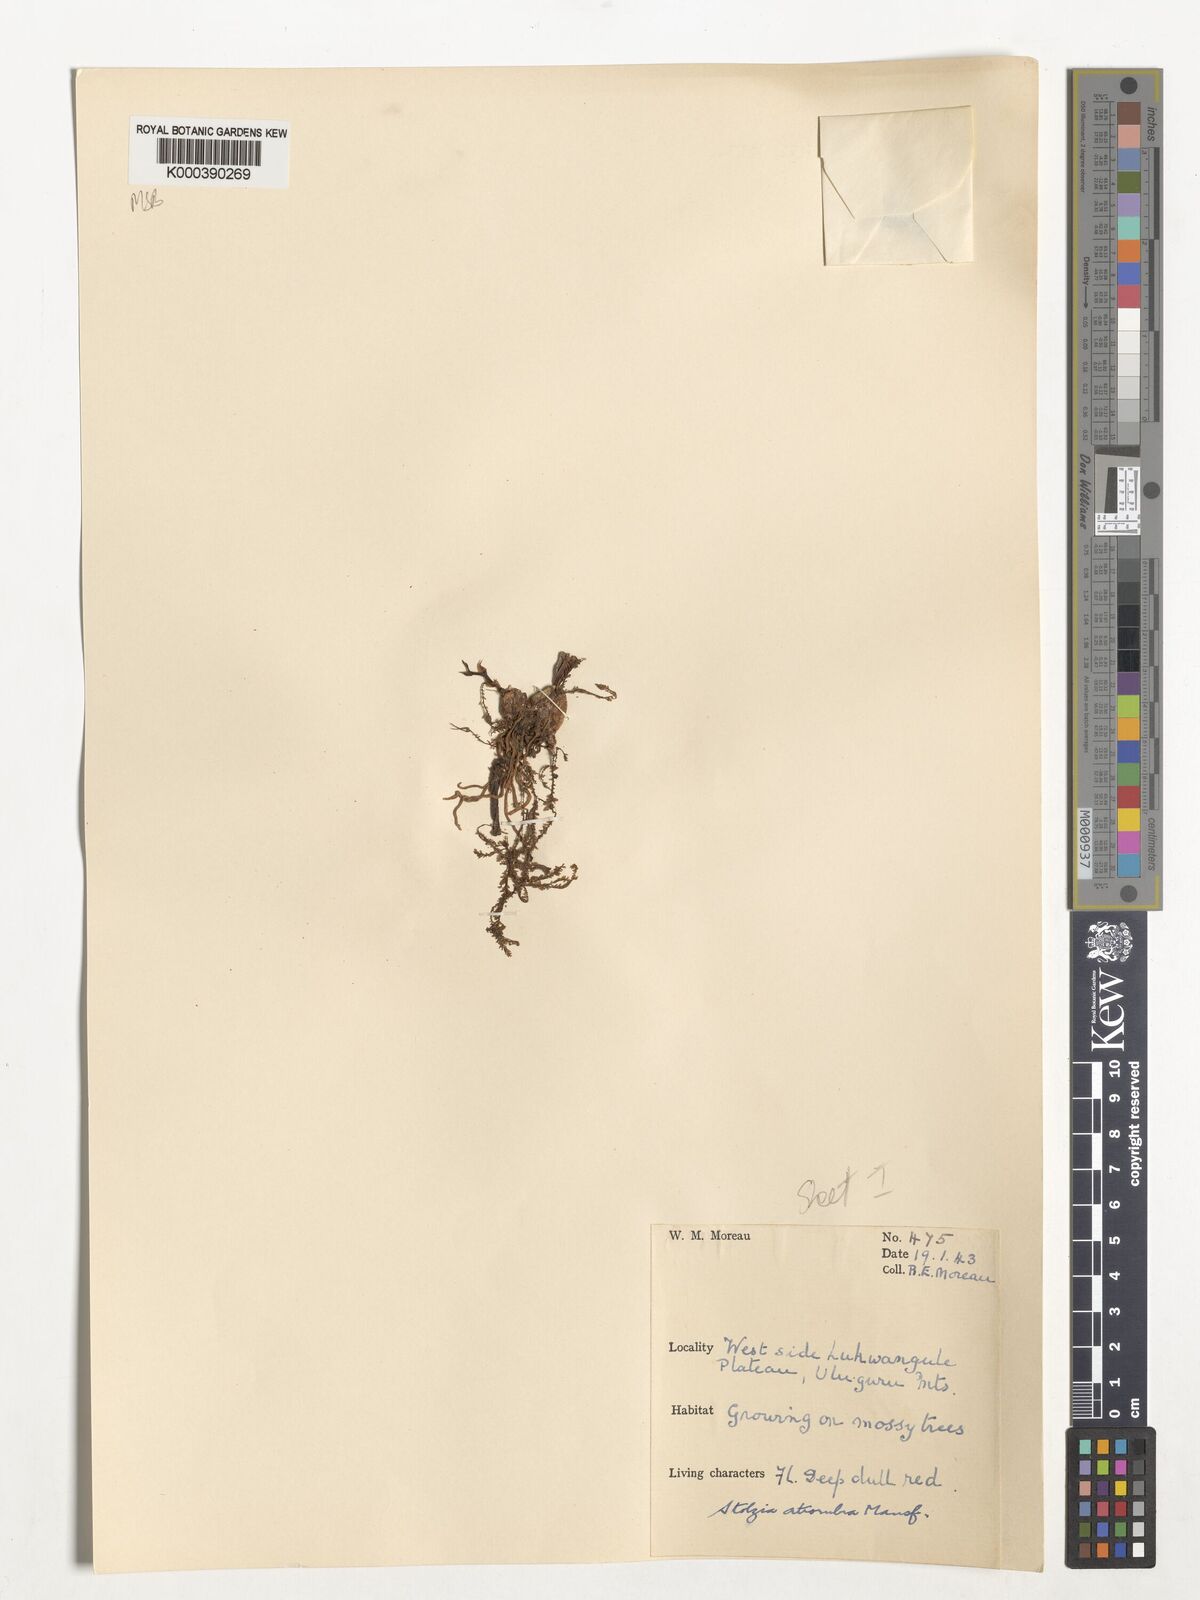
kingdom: Plantae
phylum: Tracheophyta
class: Liliopsida
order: Asparagales
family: Orchidaceae
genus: Porpax
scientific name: Porpax atrorubra
